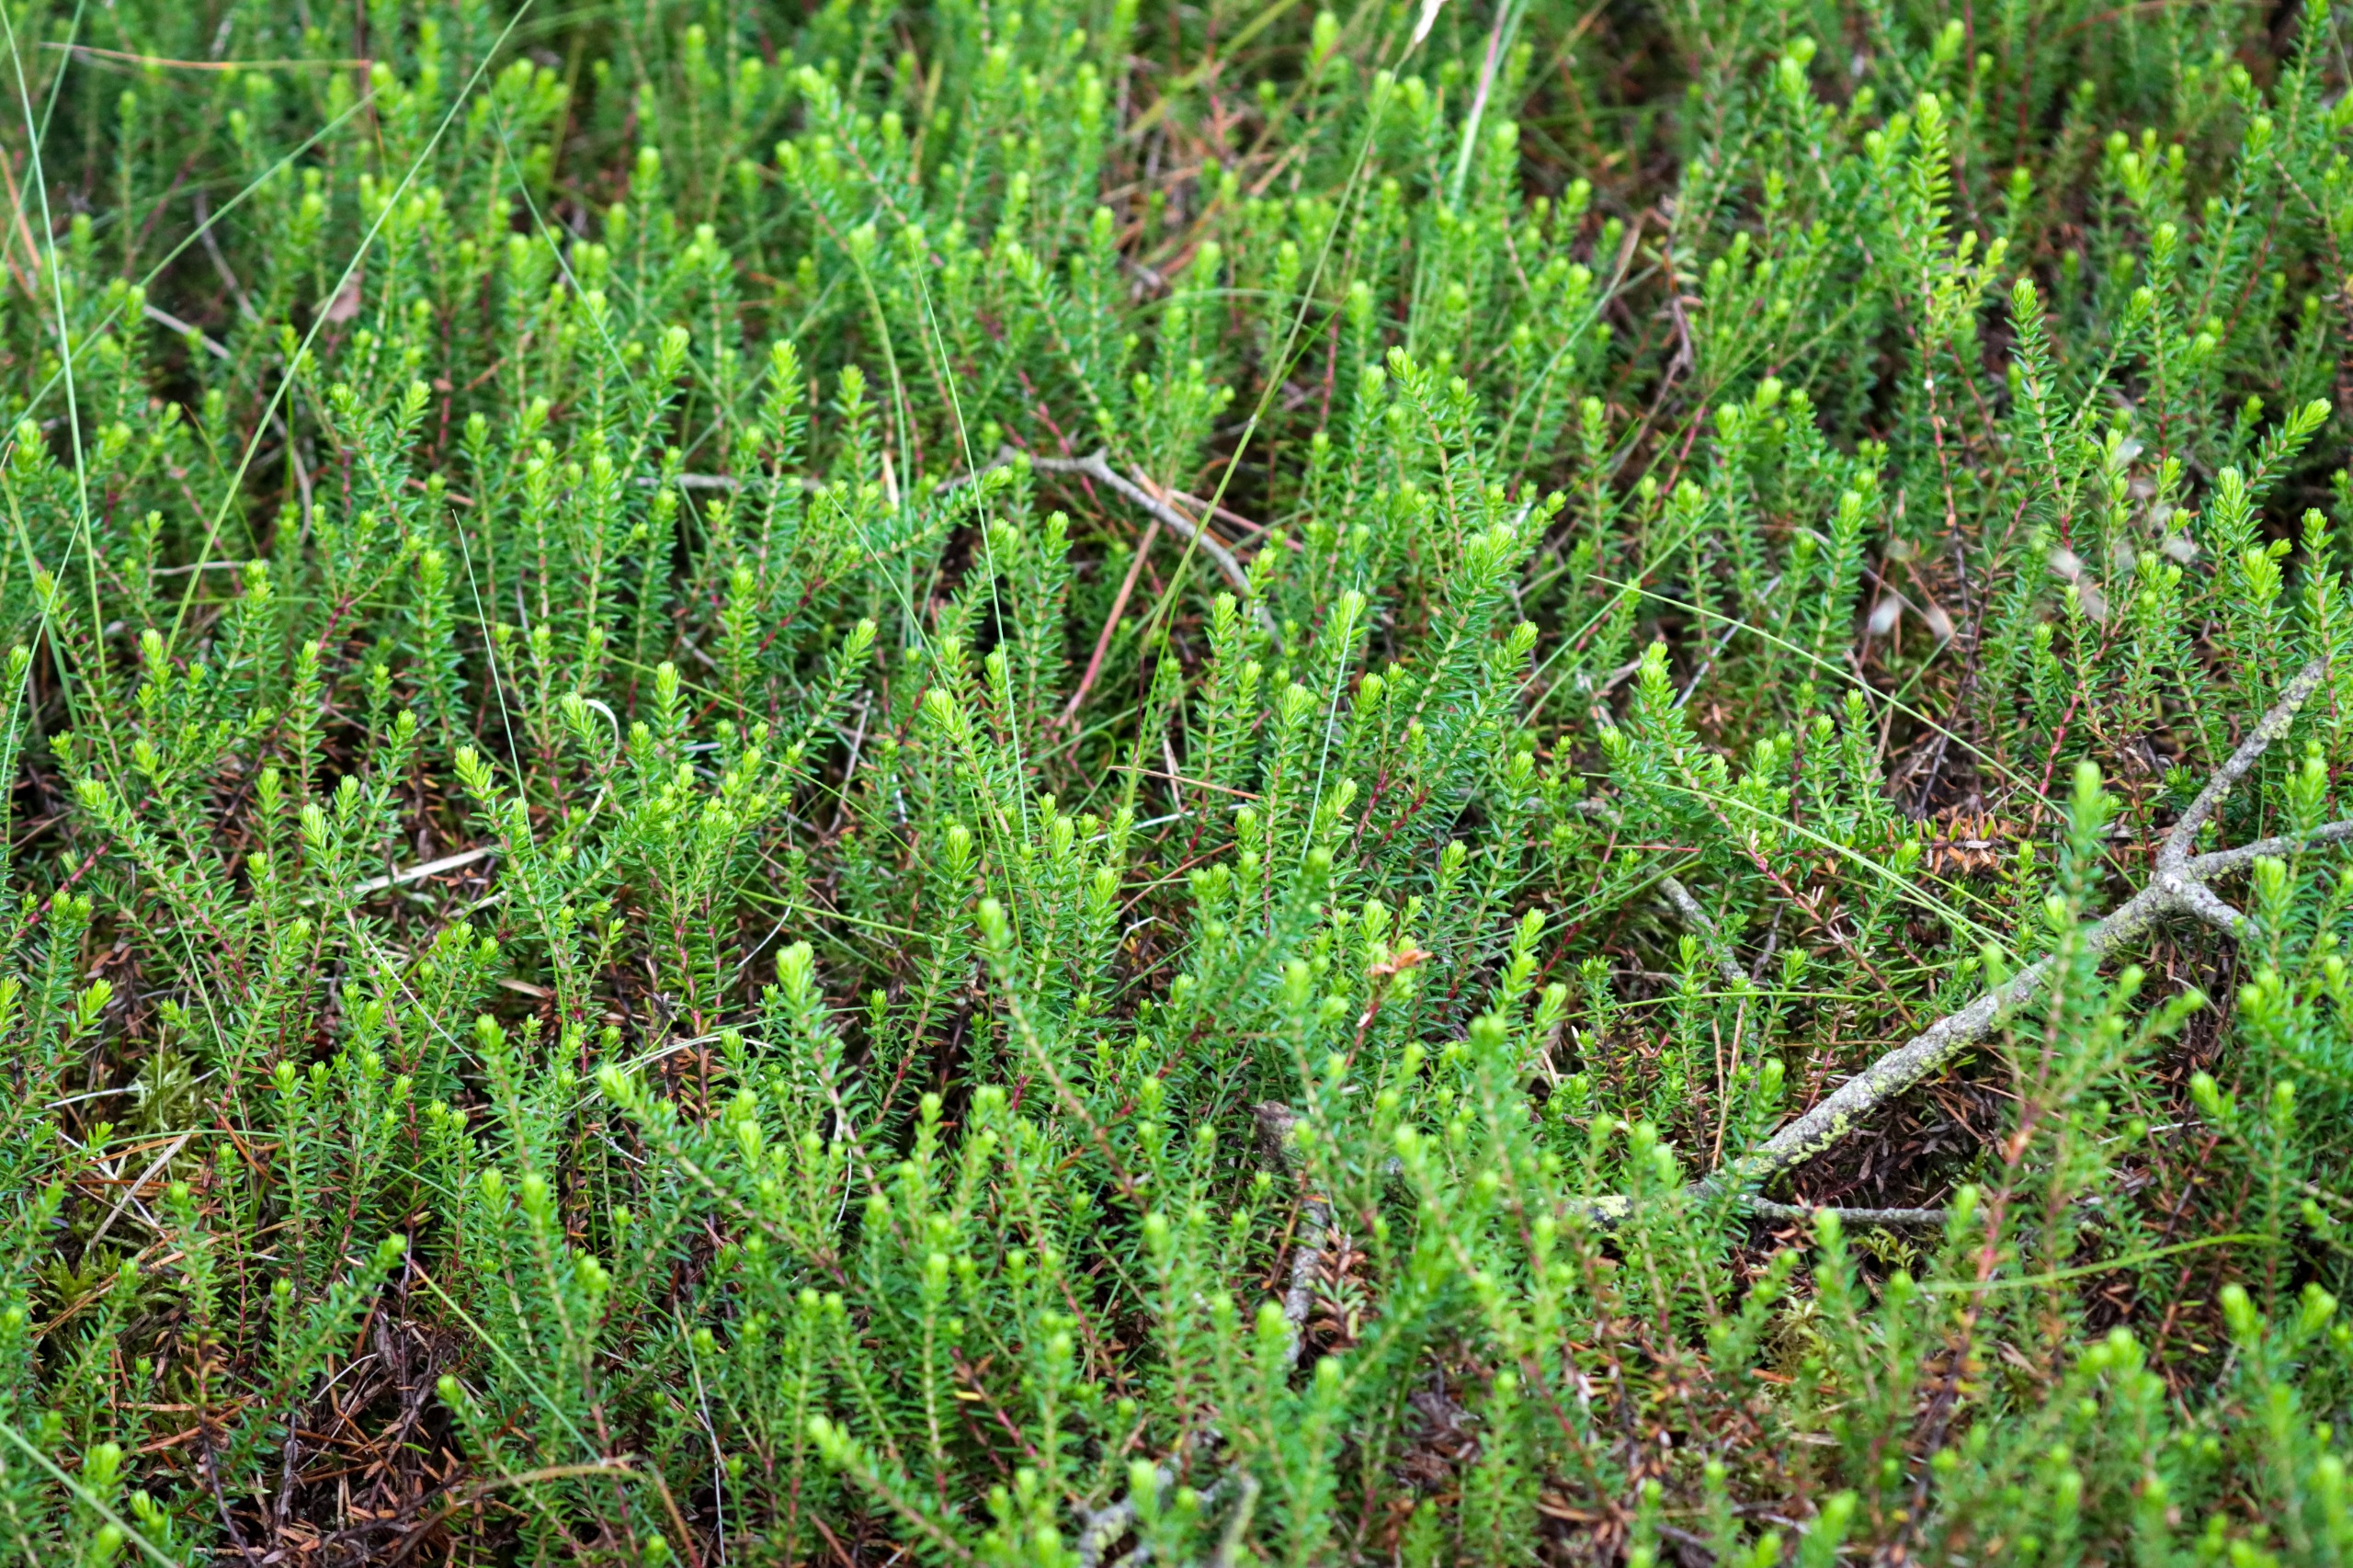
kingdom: Plantae
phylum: Tracheophyta
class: Magnoliopsida
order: Ericales
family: Ericaceae
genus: Empetrum
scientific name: Empetrum nigrum
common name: Revling
